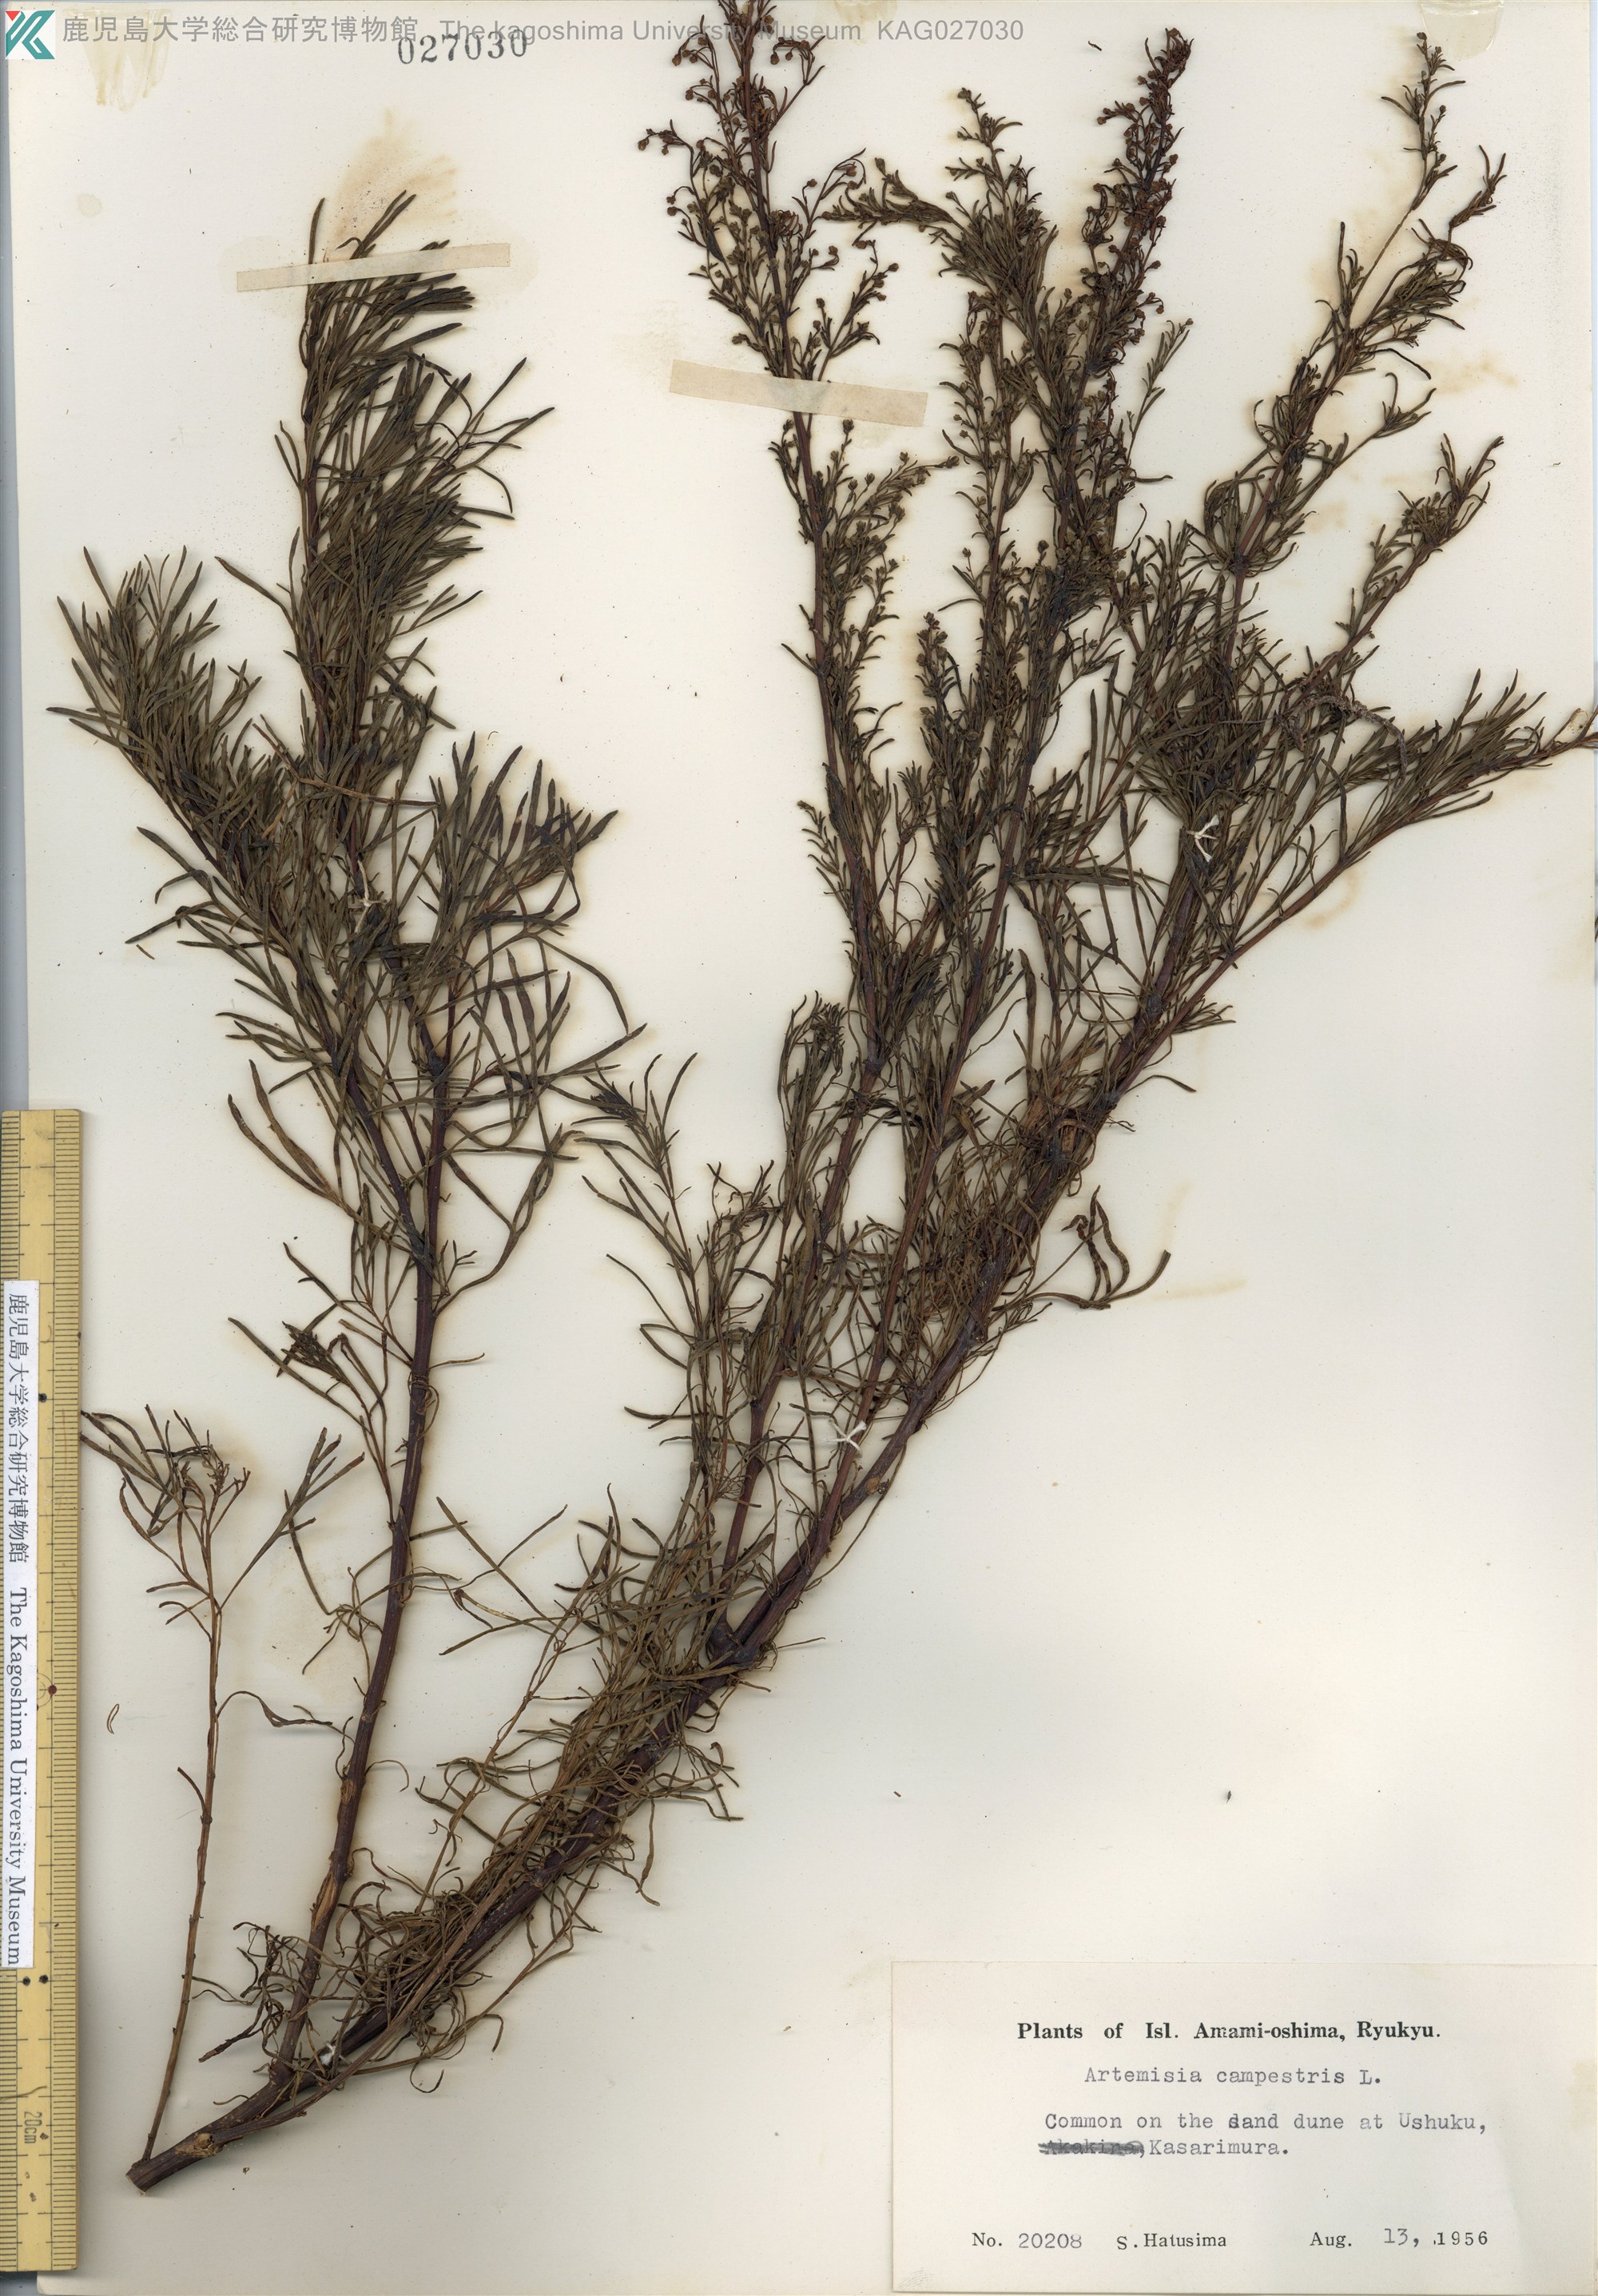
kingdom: Plantae
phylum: Tracheophyta
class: Magnoliopsida
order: Asterales
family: Asteraceae
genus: Artemisia
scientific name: Artemisia morrisonensis
